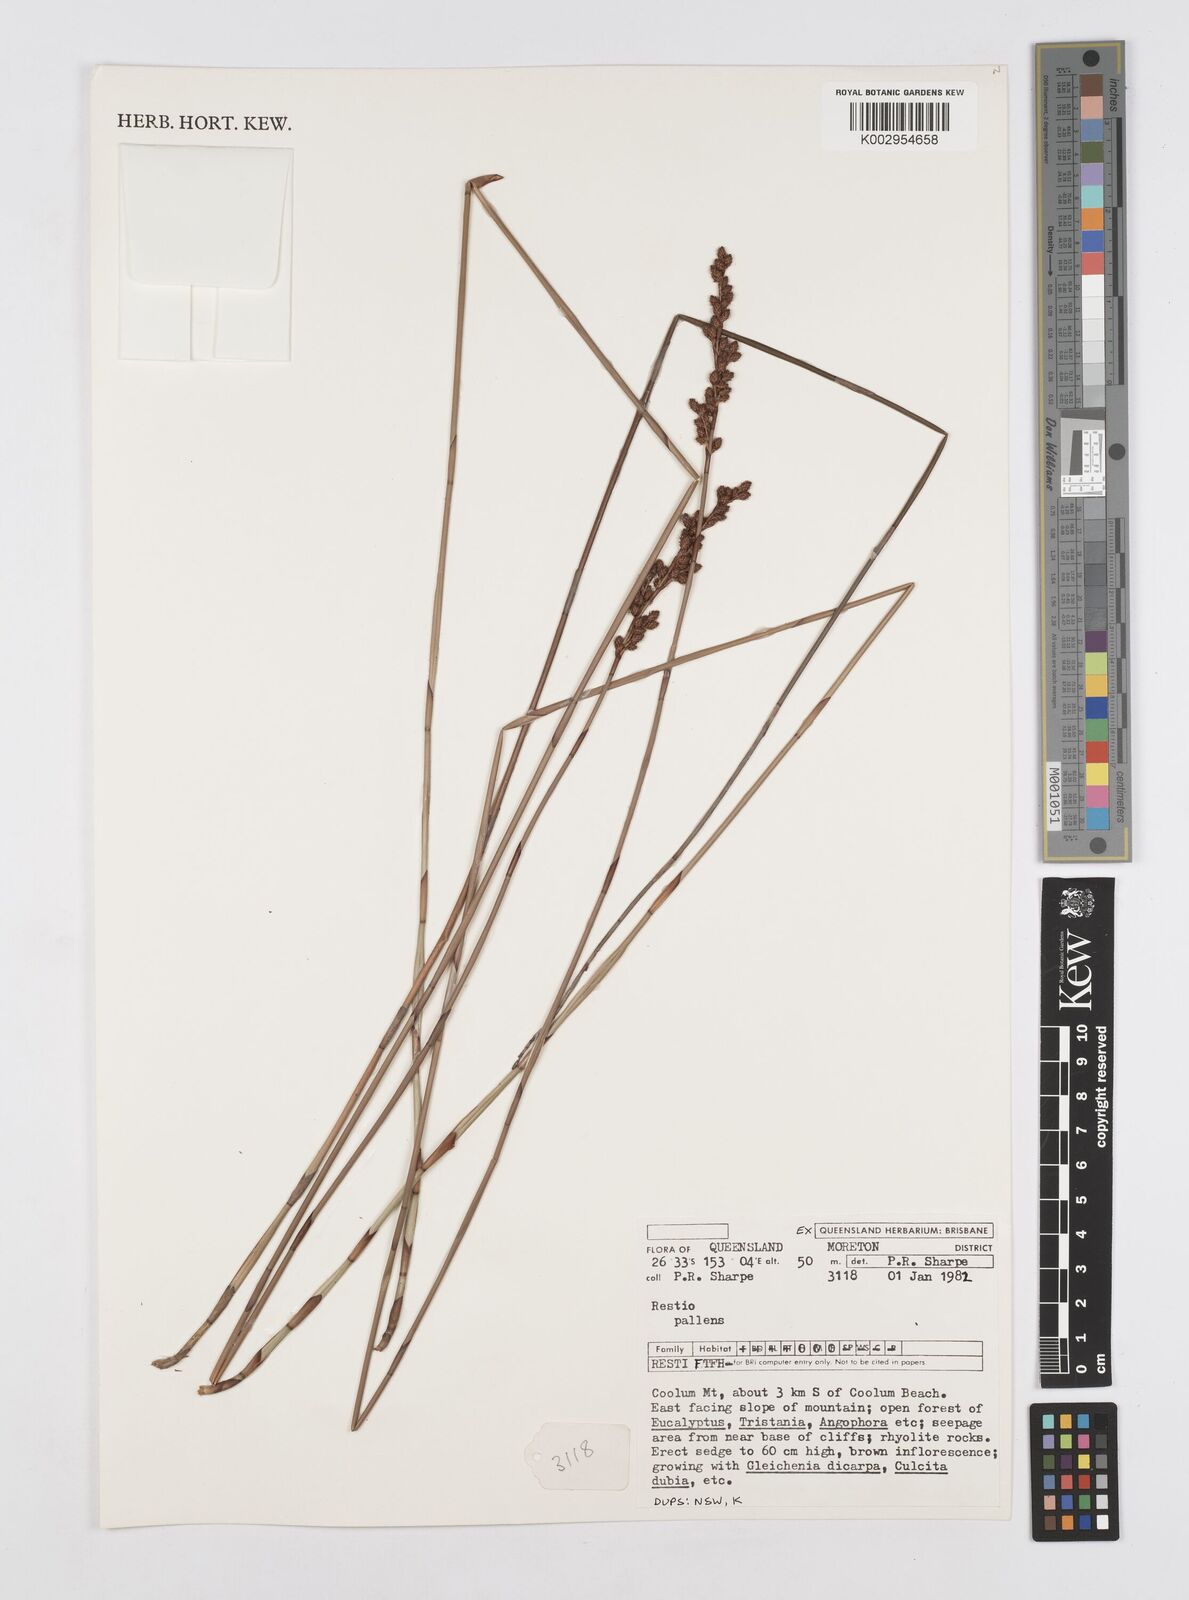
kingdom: Plantae
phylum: Tracheophyta
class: Liliopsida
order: Poales
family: Restionaceae
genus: Baloskion
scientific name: Baloskion pallens
